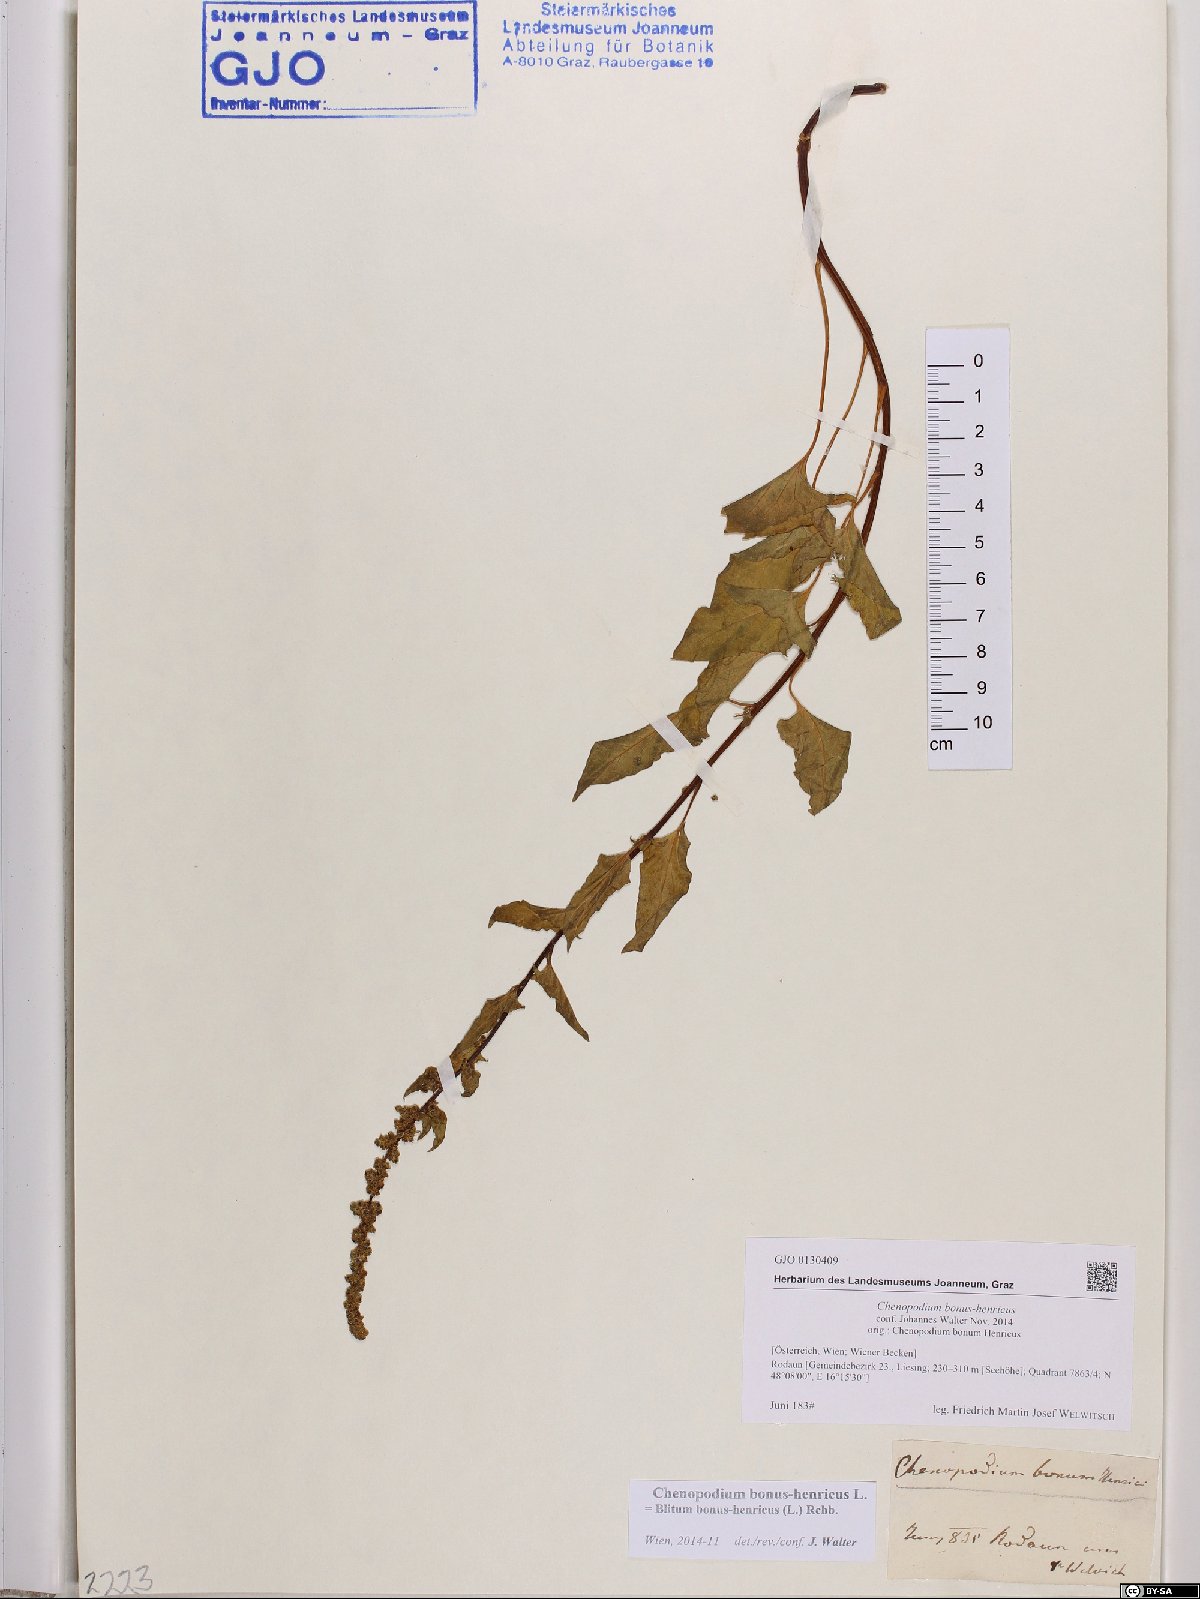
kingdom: Plantae
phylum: Tracheophyta
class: Magnoliopsida
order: Caryophyllales
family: Amaranthaceae
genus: Blitum
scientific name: Blitum bonus-henricus
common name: Good king henry
